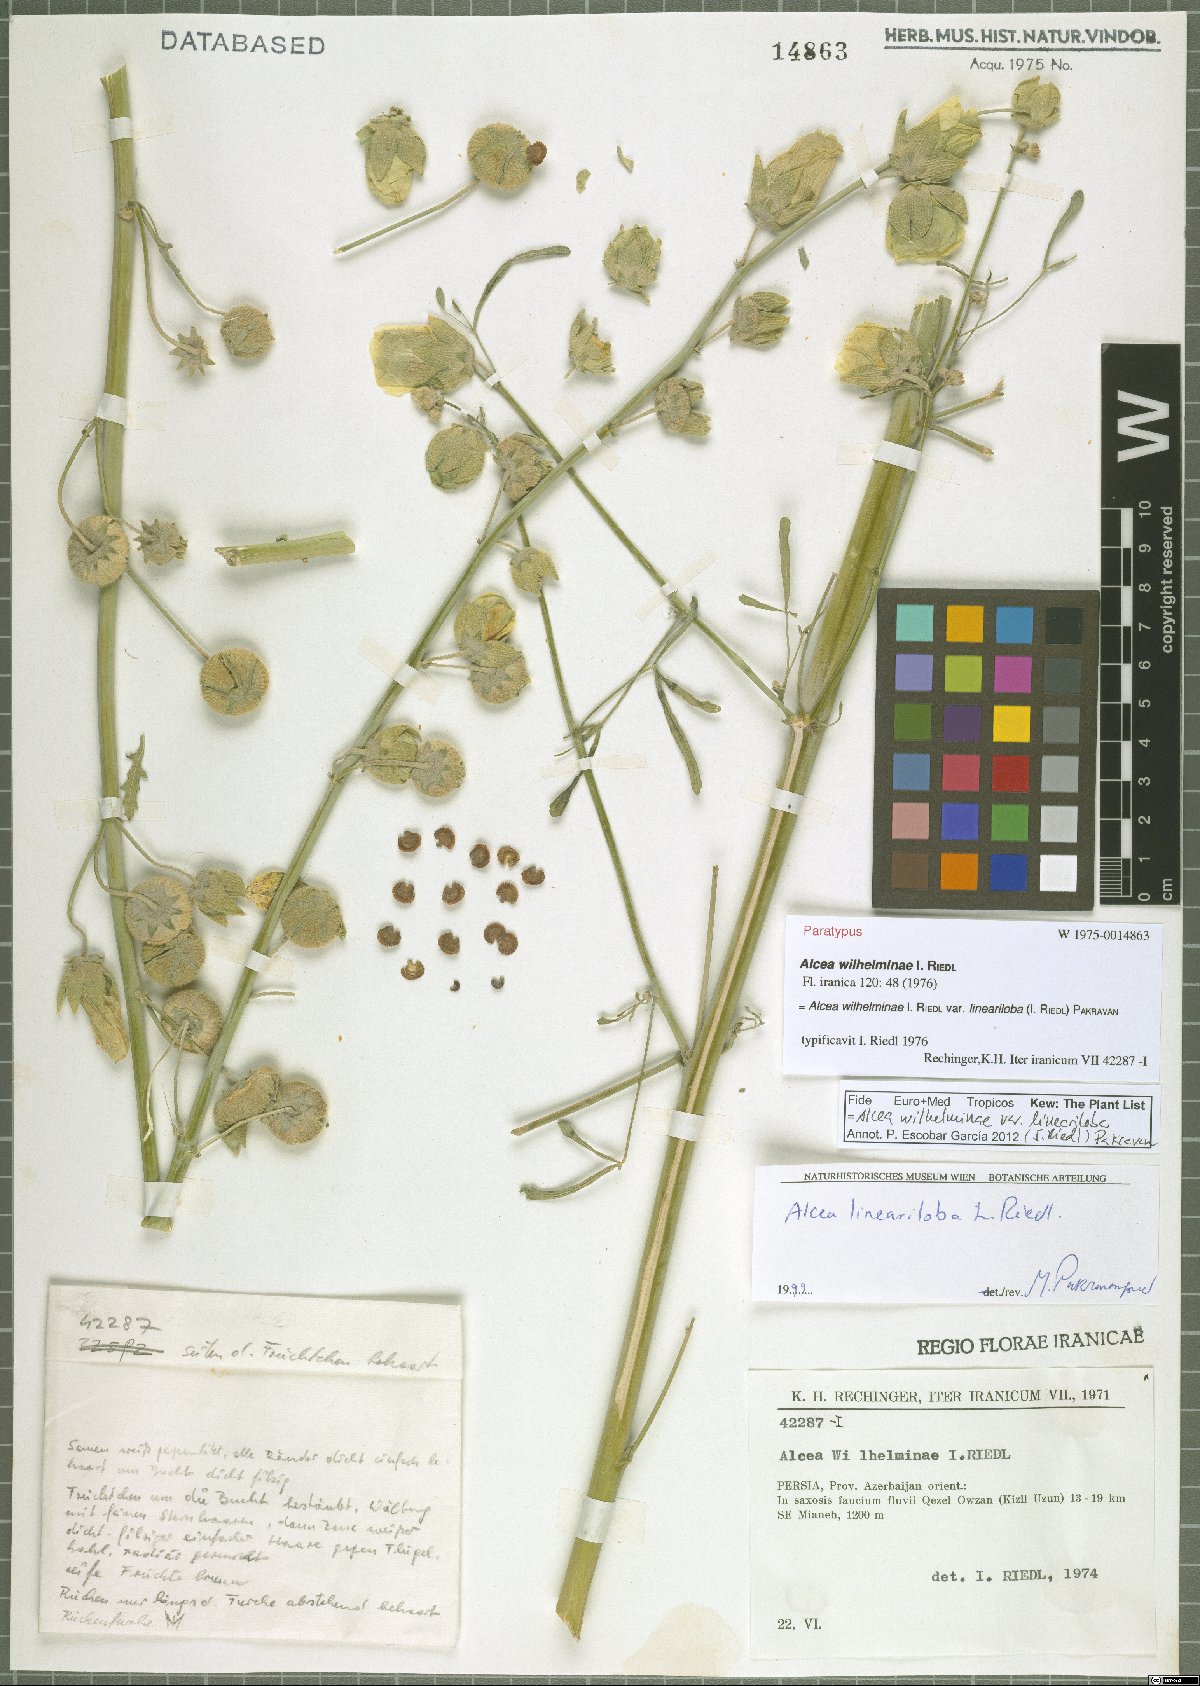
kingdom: Plantae
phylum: Tracheophyta
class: Magnoliopsida
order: Malvales
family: Malvaceae
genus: Alcea
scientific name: Alcea wilhelminae
